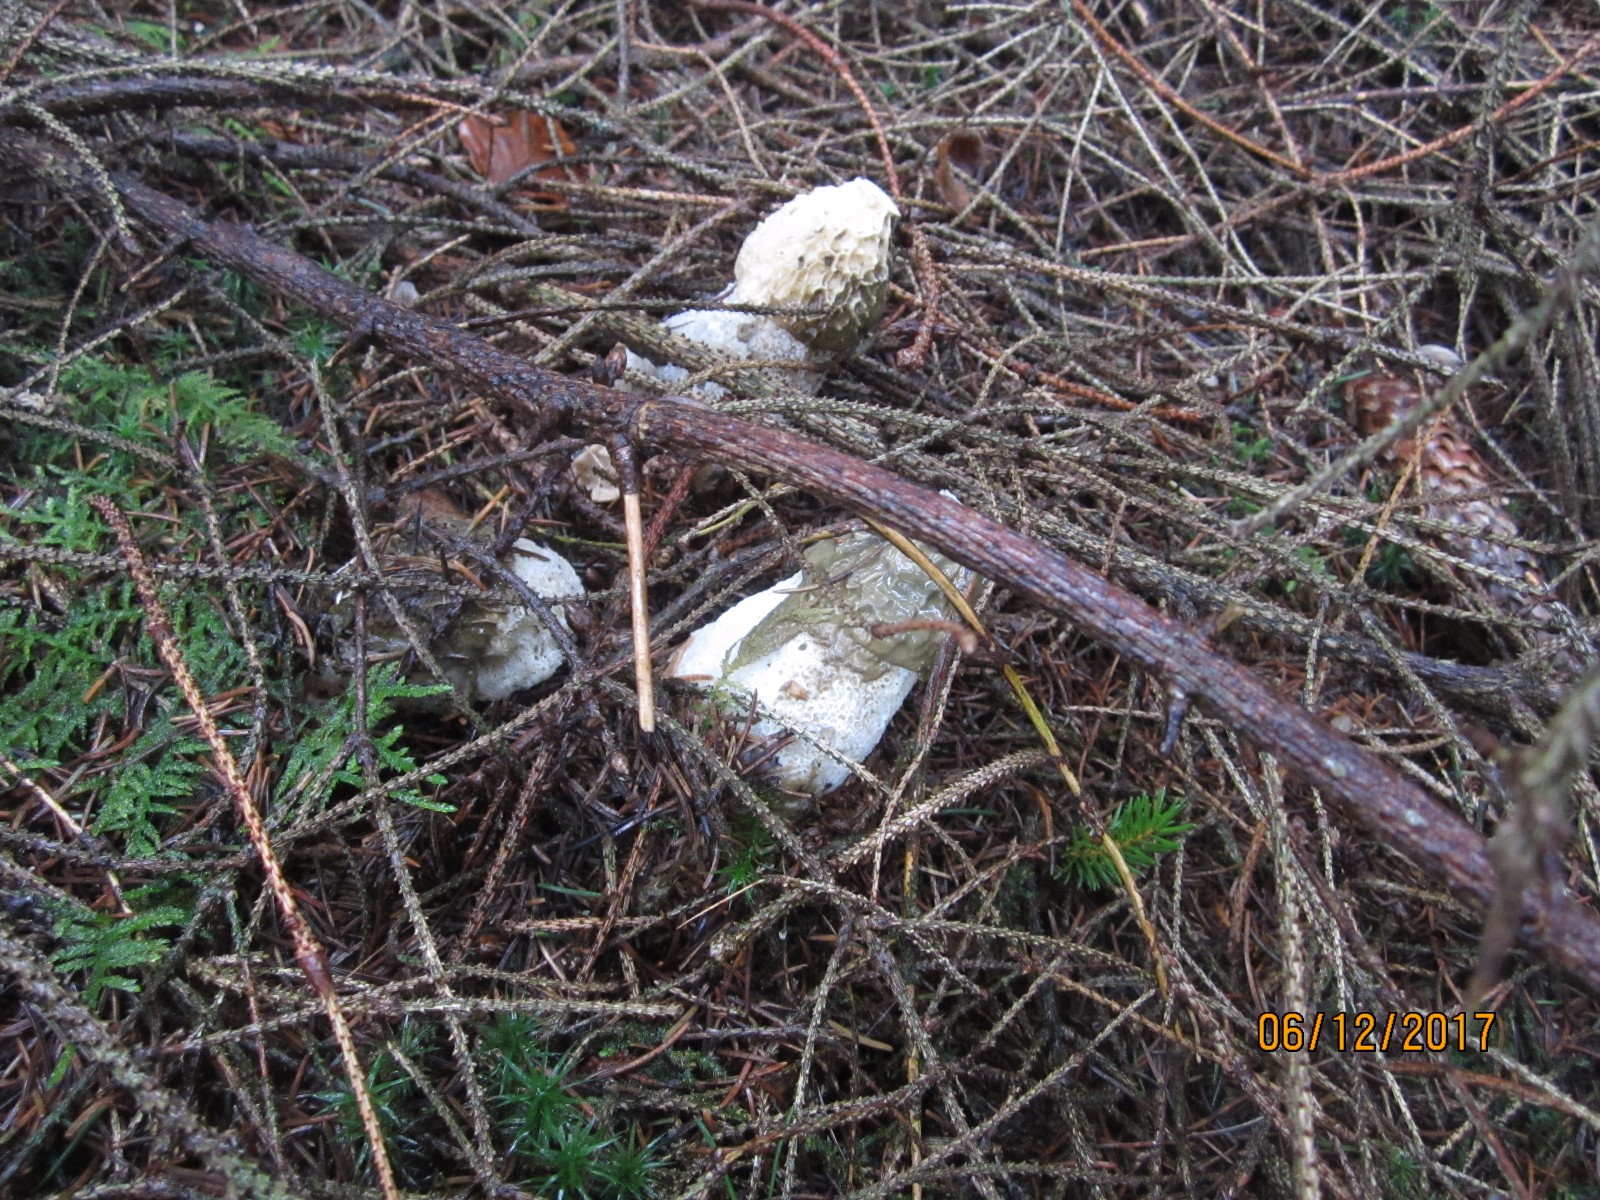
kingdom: Fungi
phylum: Basidiomycota
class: Agaricomycetes
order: Phallales
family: Phallaceae
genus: Phallus
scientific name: Phallus impudicus
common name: almindelig stinksvamp
